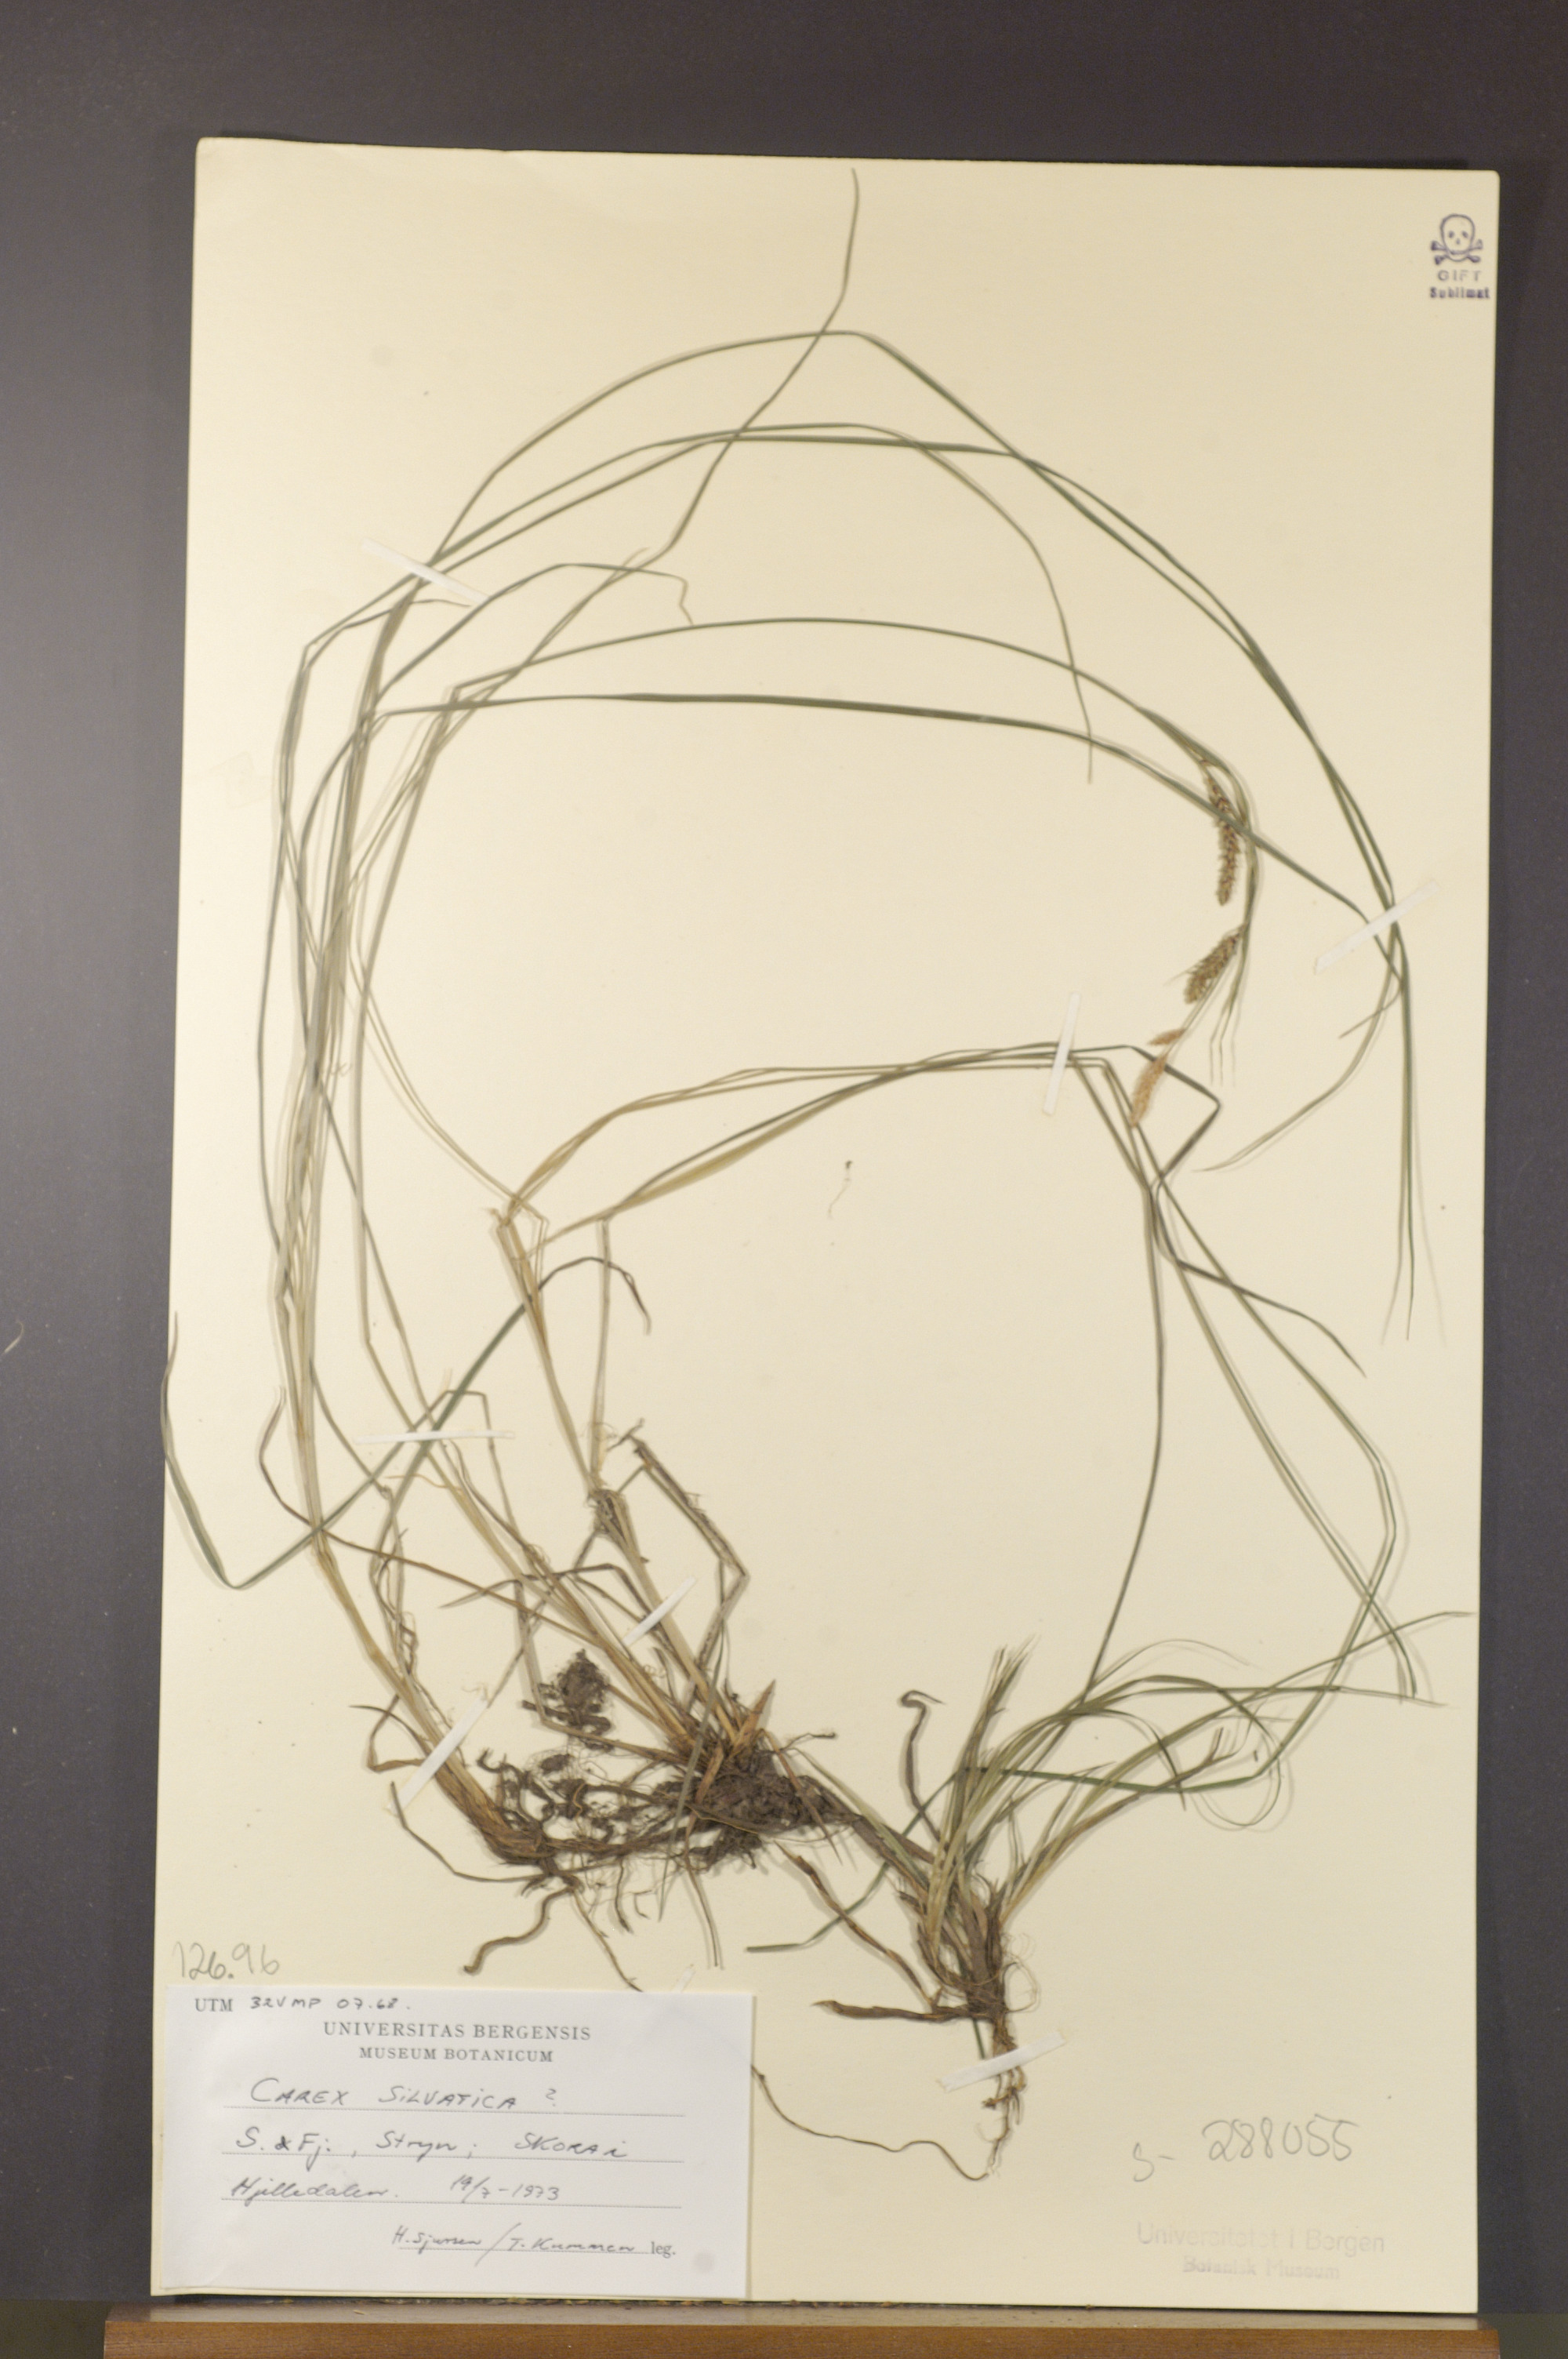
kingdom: Plantae
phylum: Tracheophyta
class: Liliopsida
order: Poales
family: Cyperaceae
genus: Carex
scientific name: Carex sylvatica
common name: Wood-sedge
